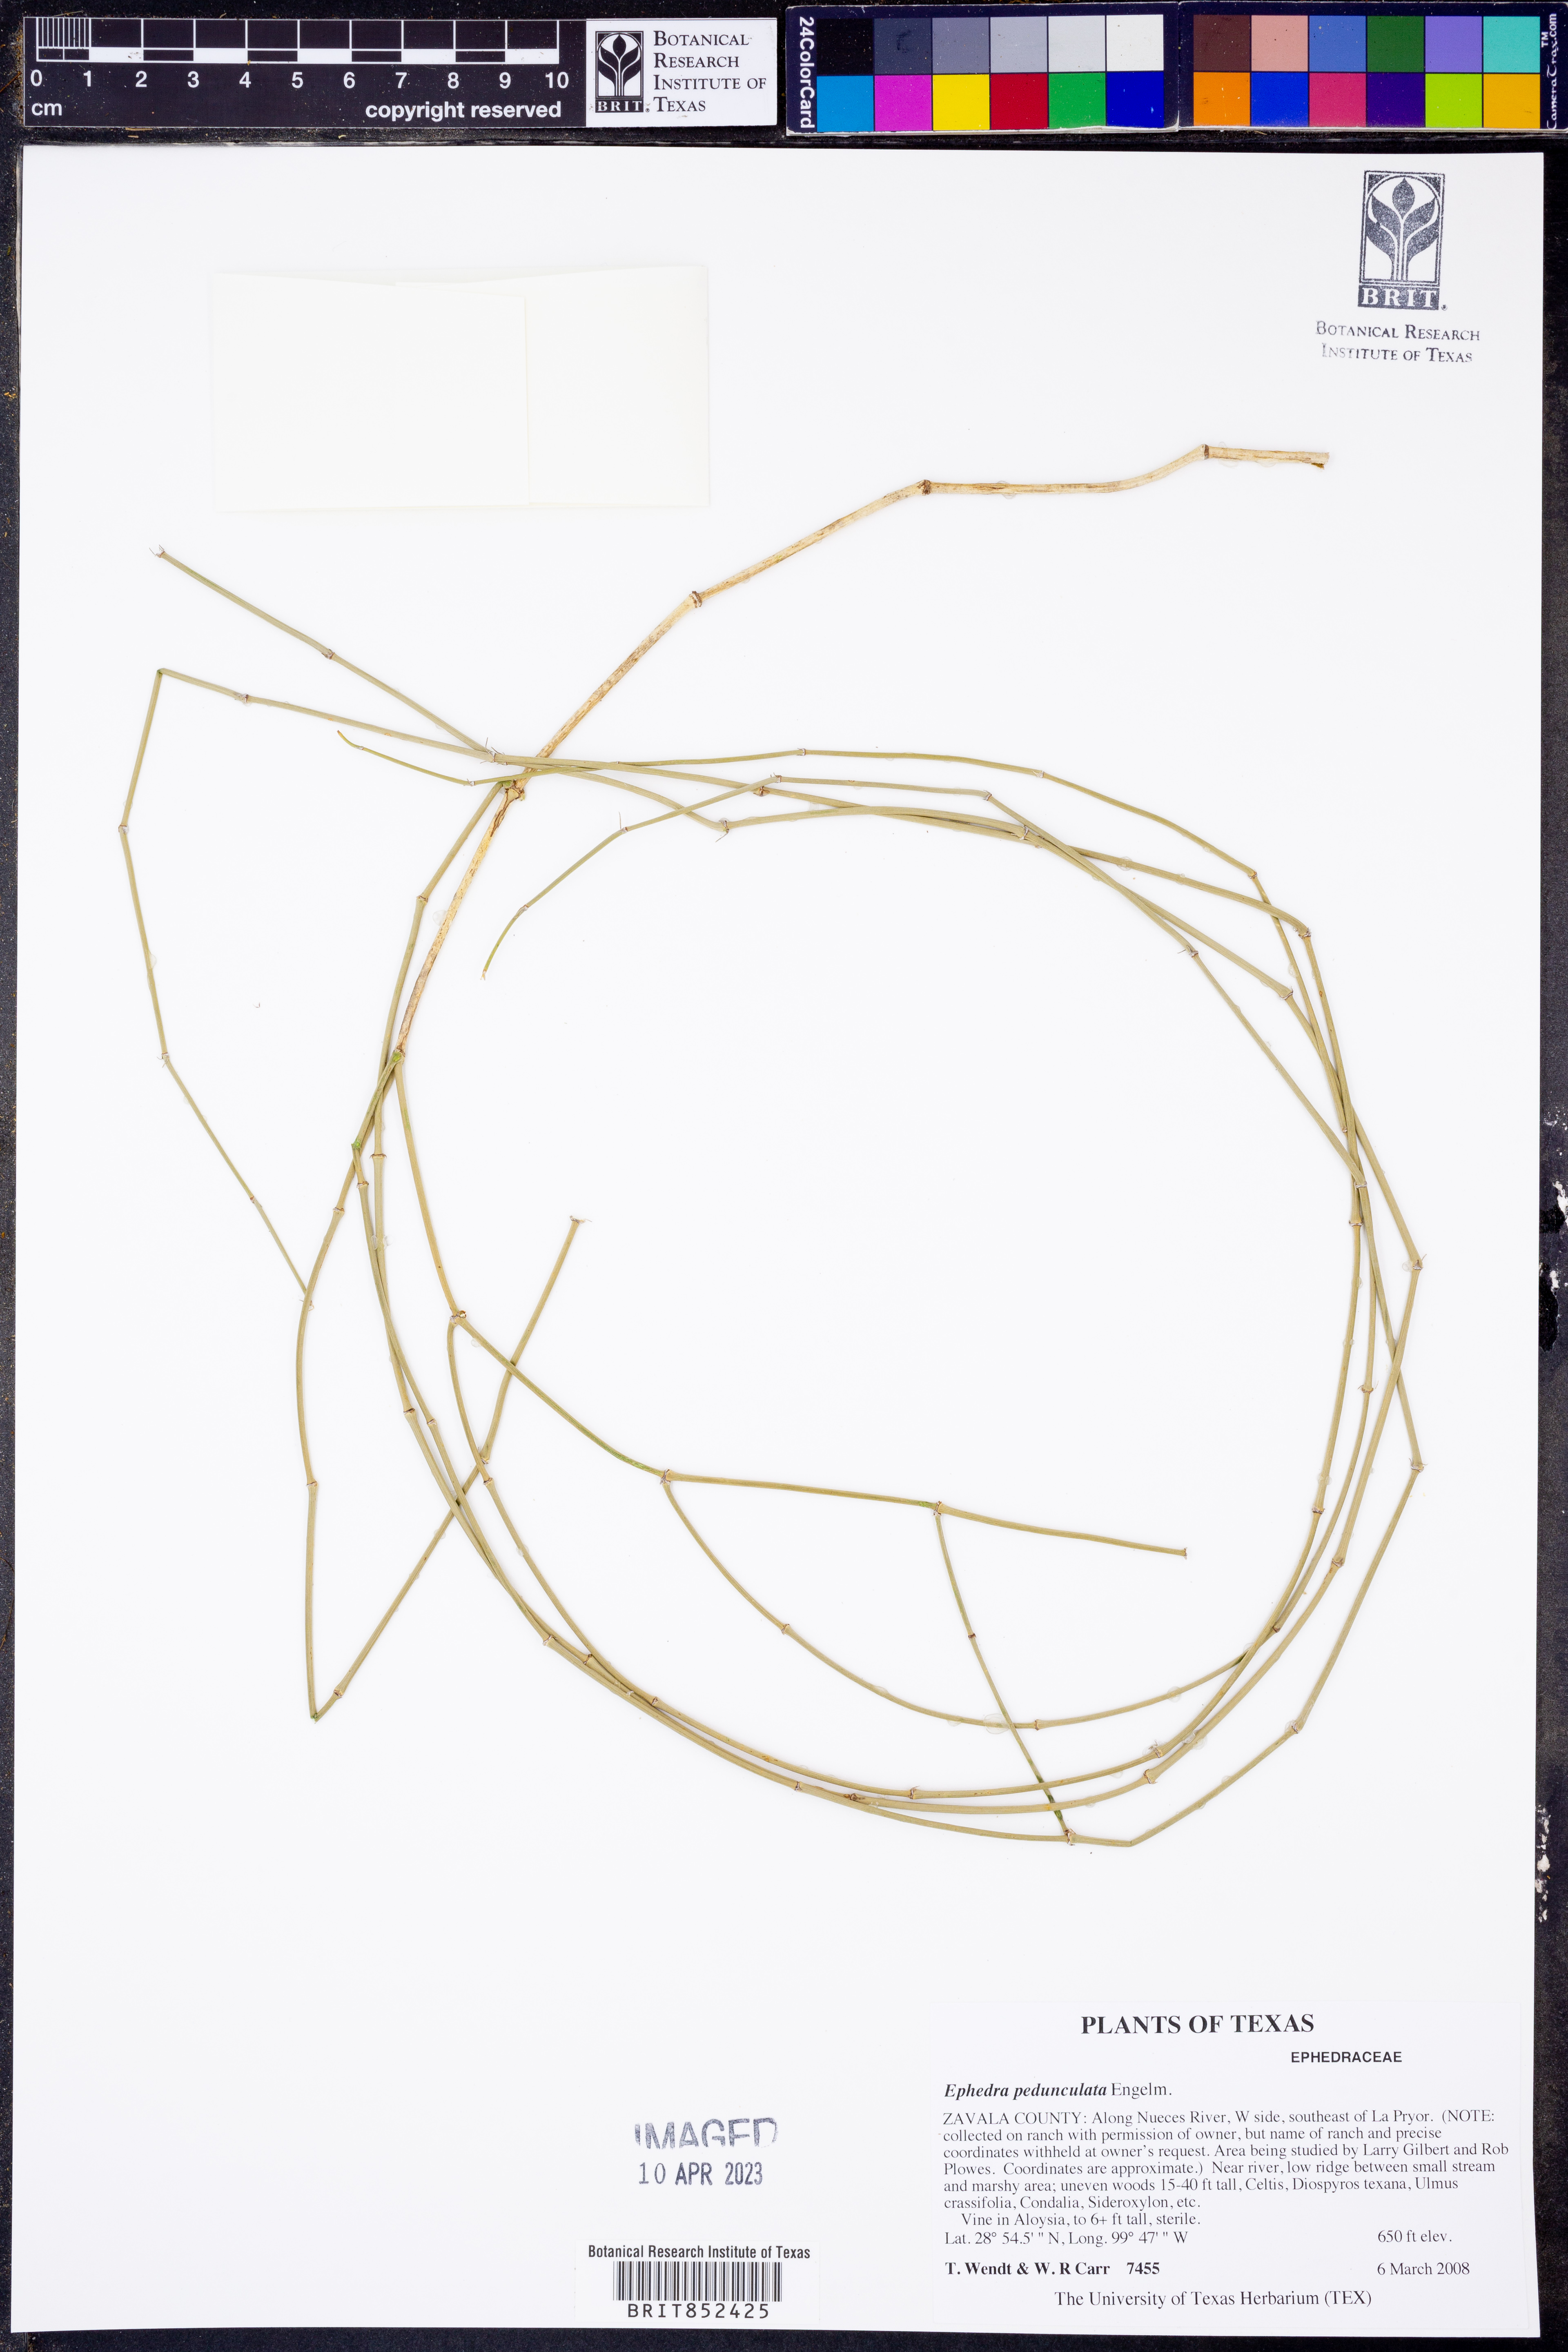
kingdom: Plantae
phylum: Tracheophyta
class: Gnetopsida
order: Ephedrales
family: Ephedraceae
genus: Ephedra
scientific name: Ephedra pedunculata
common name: Vine ephedra
